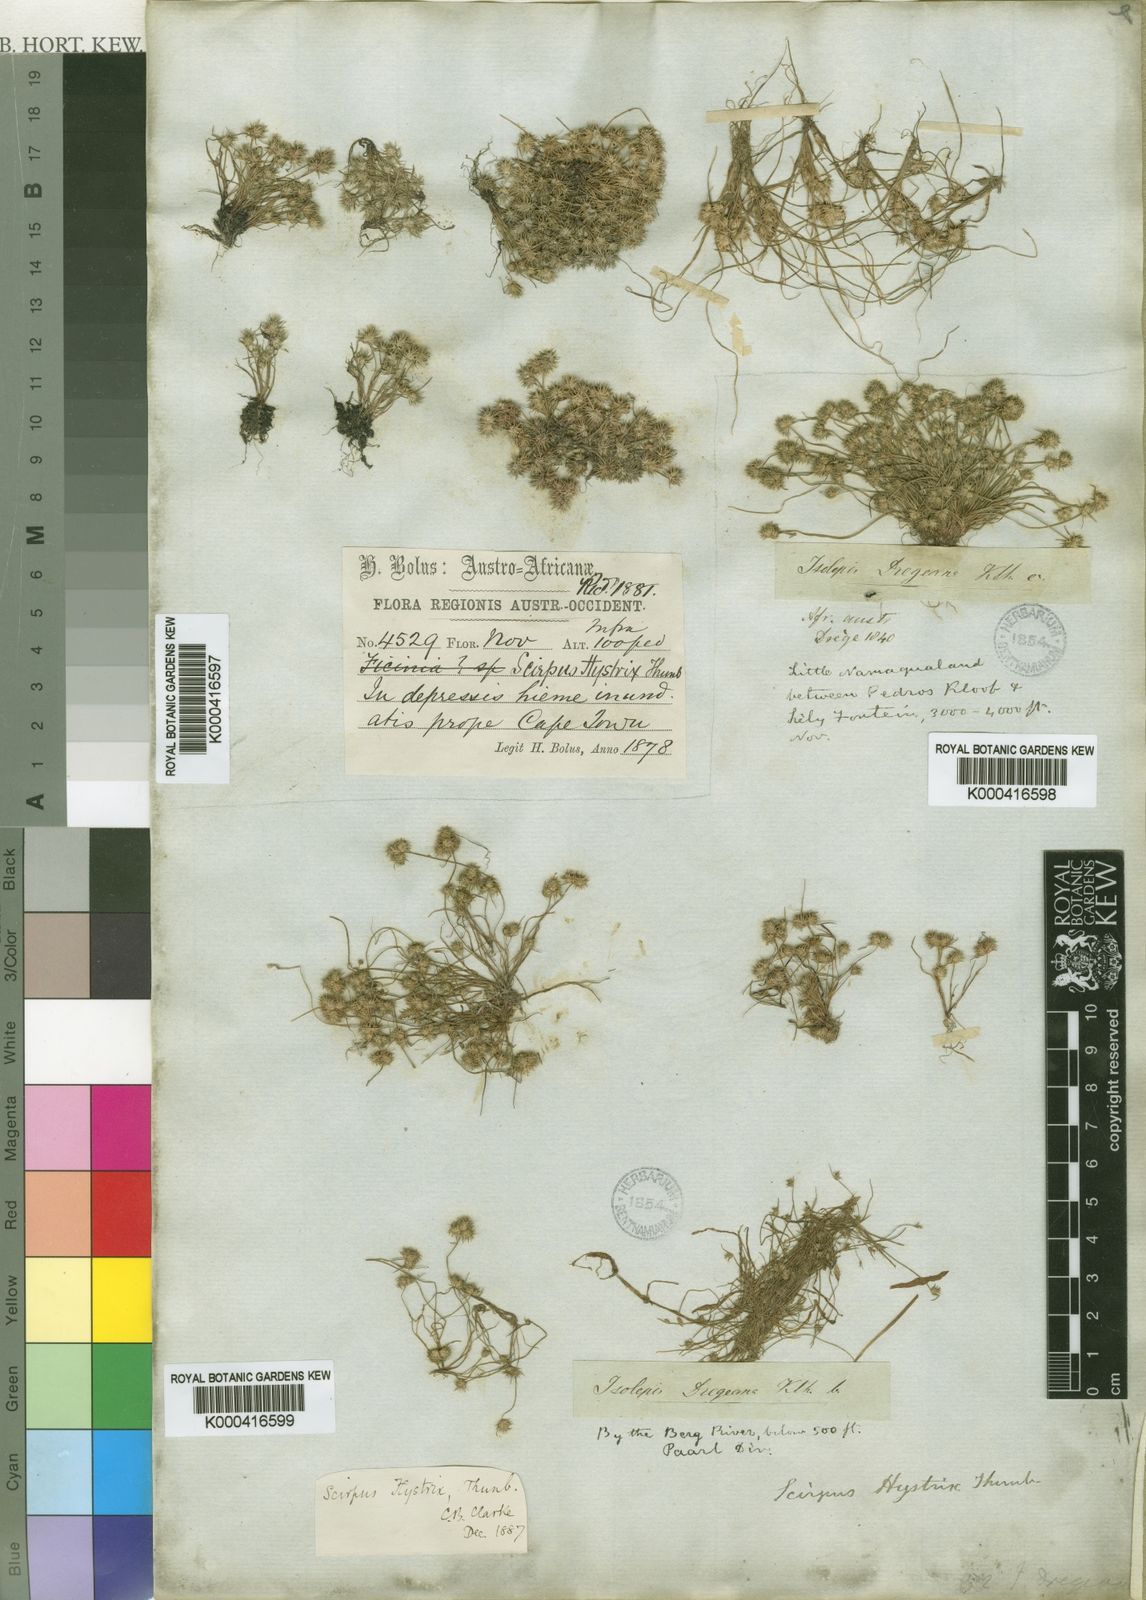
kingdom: Plantae
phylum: Tracheophyta
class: Liliopsida
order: Poales
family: Cyperaceae
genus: Isolepis
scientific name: Isolepis hystrix
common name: Bottlebrush bulrush
